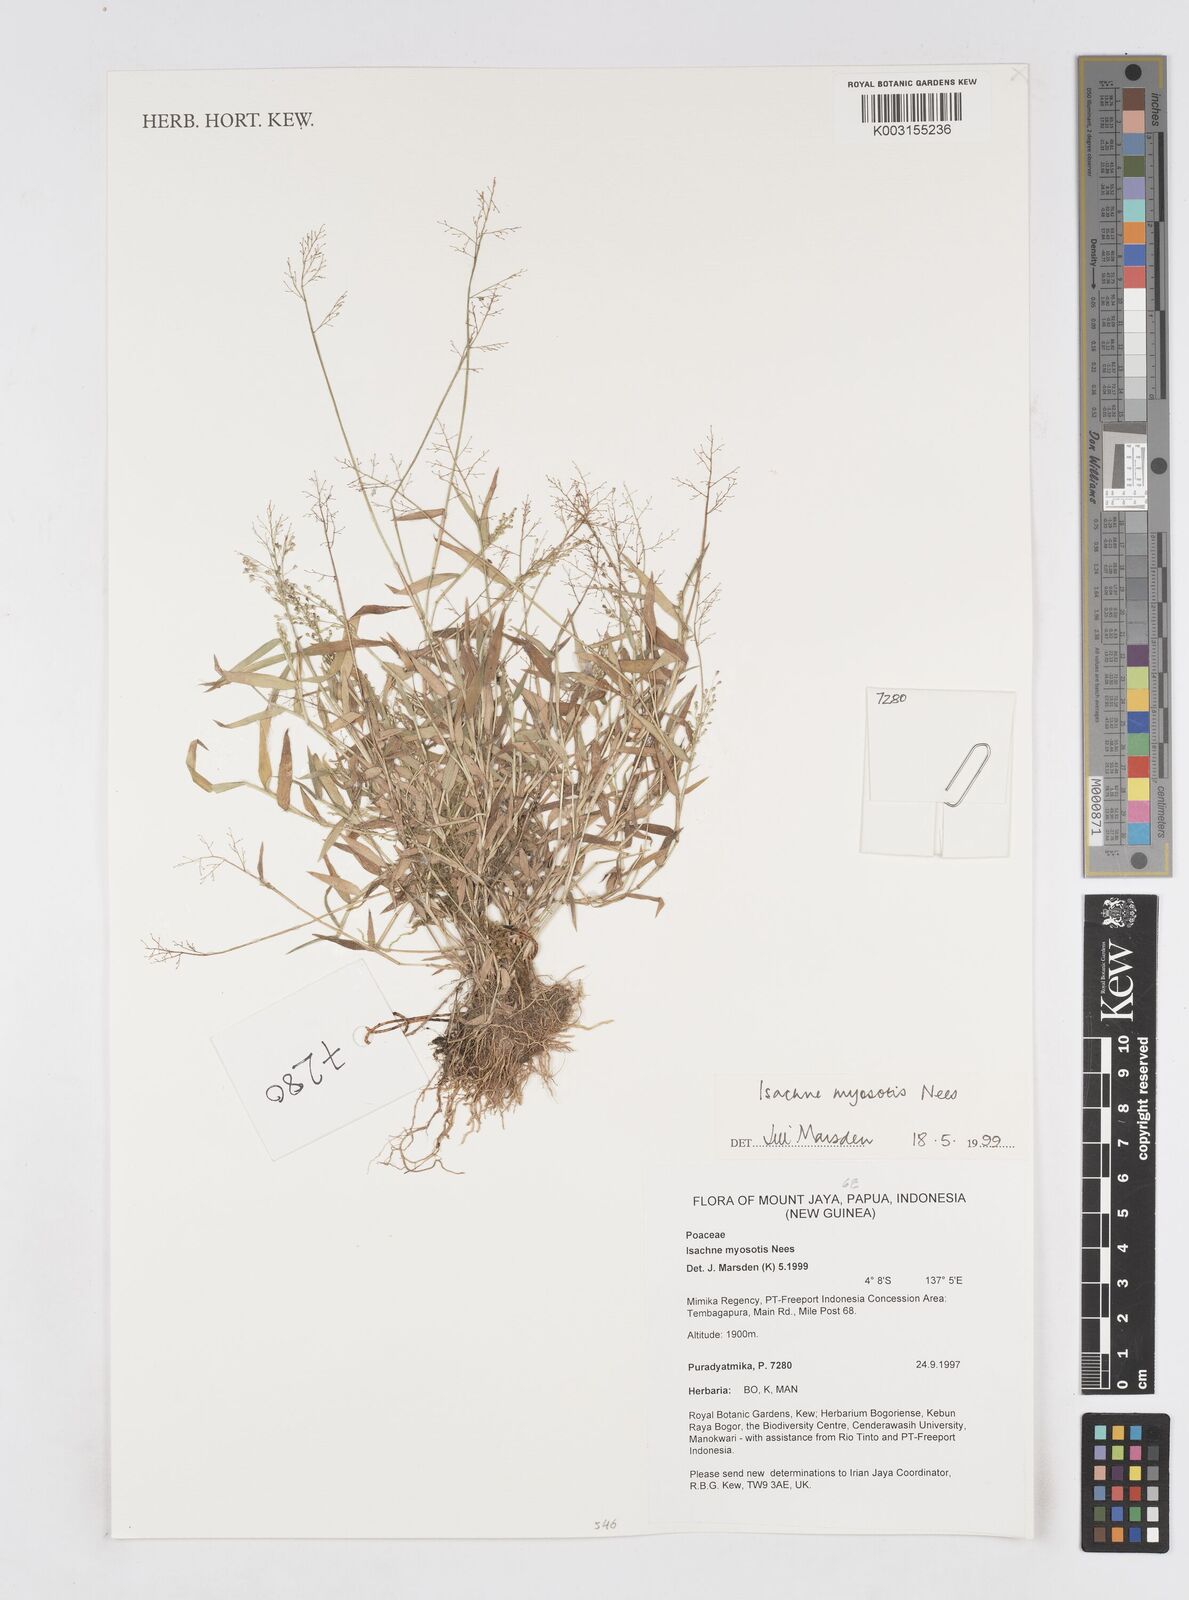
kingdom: Plantae
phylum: Tracheophyta
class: Liliopsida
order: Poales
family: Poaceae
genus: Isachne
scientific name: Isachne myosotis
